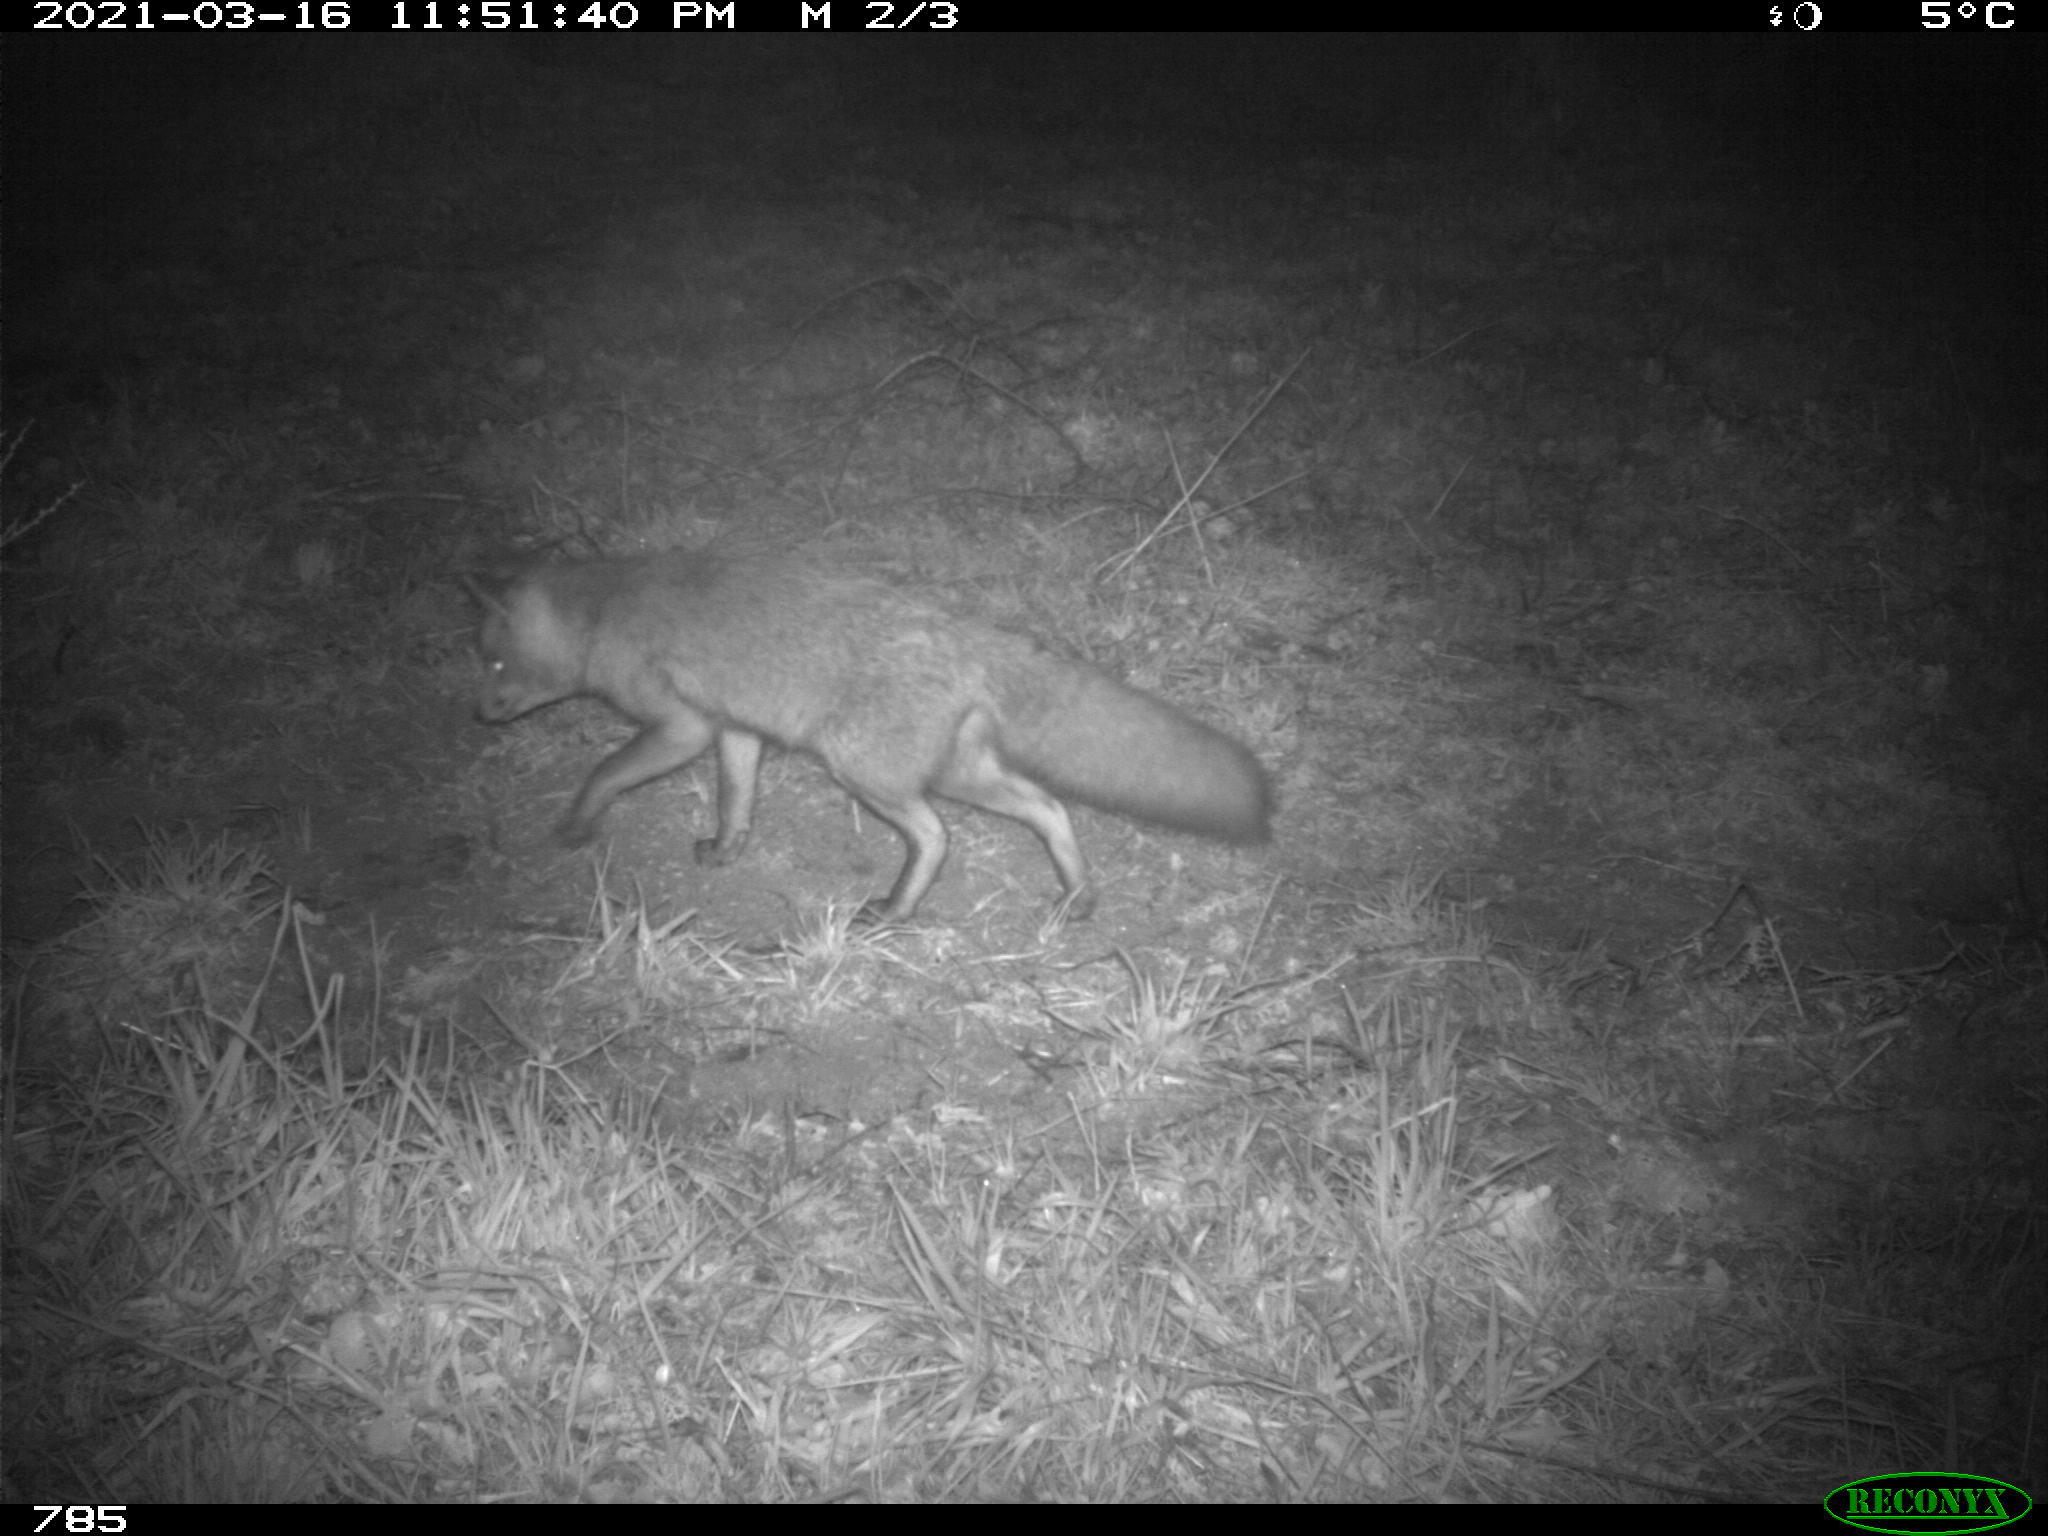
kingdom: Animalia
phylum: Chordata
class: Mammalia
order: Carnivora
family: Canidae
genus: Vulpes
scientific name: Vulpes vulpes
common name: Red fox
